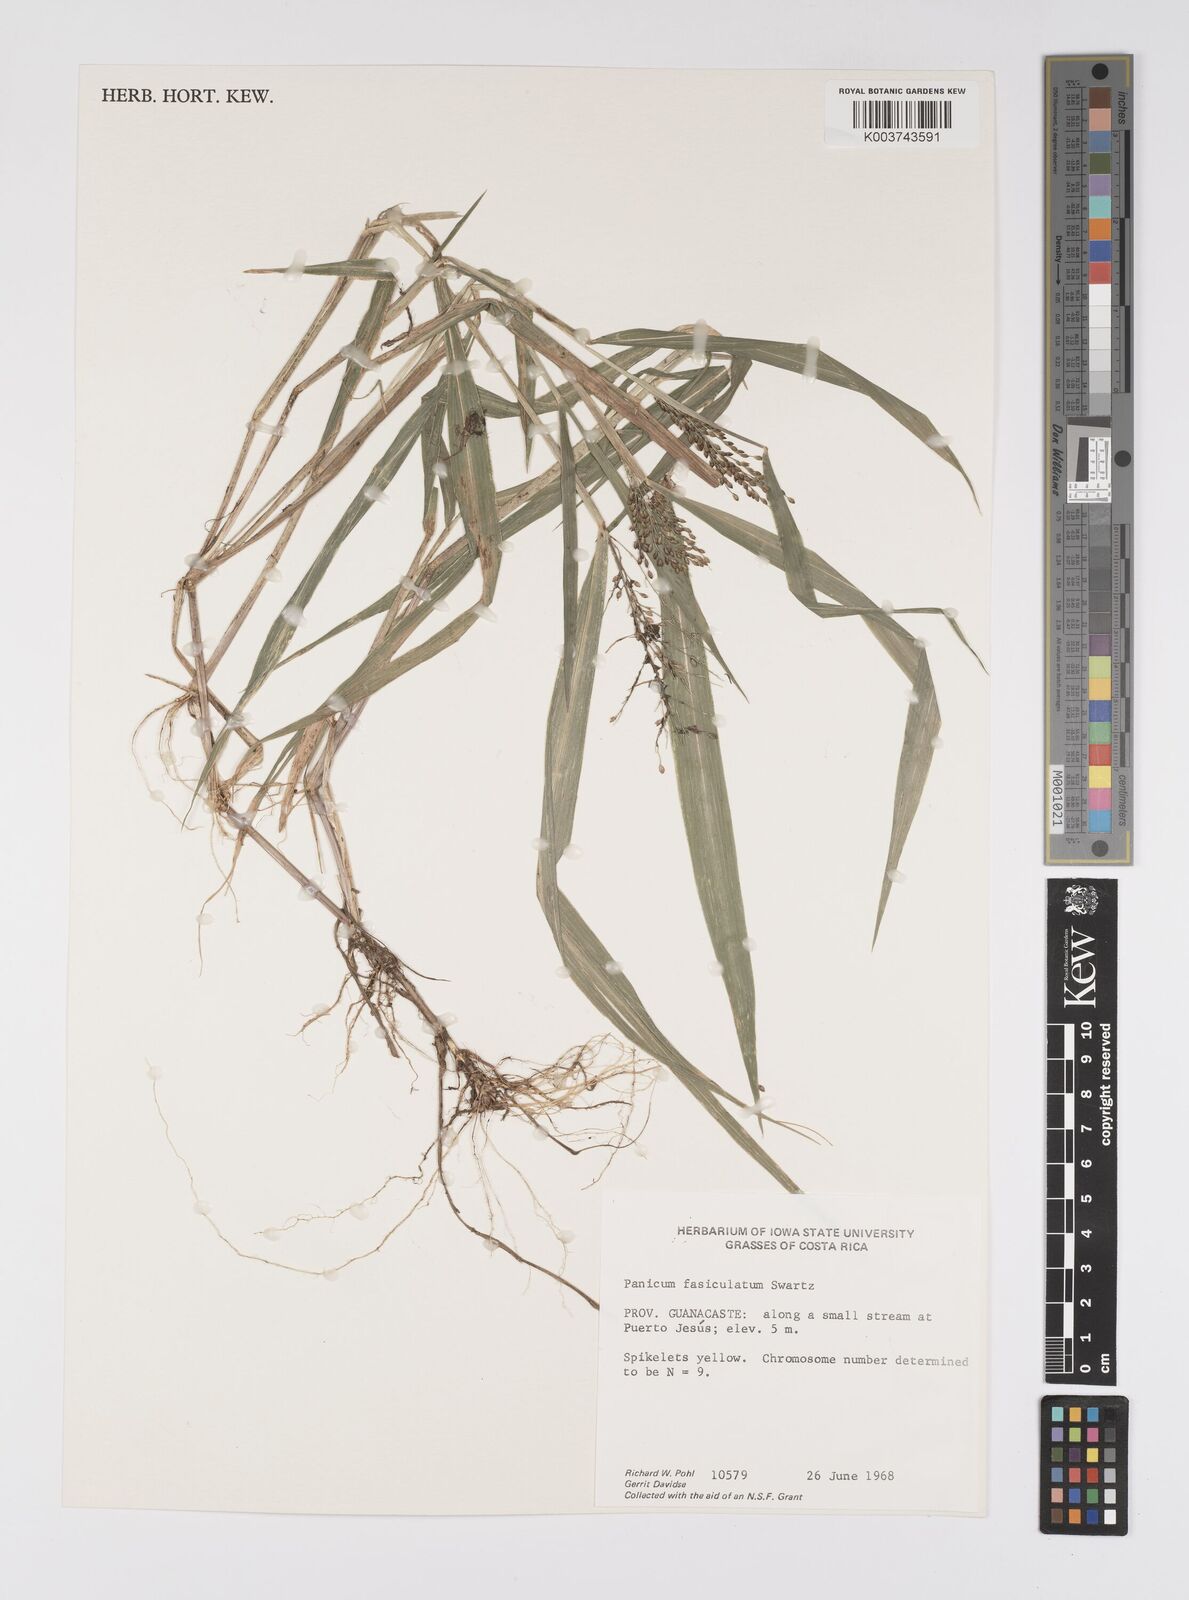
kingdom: Plantae
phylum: Tracheophyta
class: Liliopsida
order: Poales
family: Poaceae
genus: Urochloa
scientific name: Urochloa fusca
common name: Browntop signal grass
